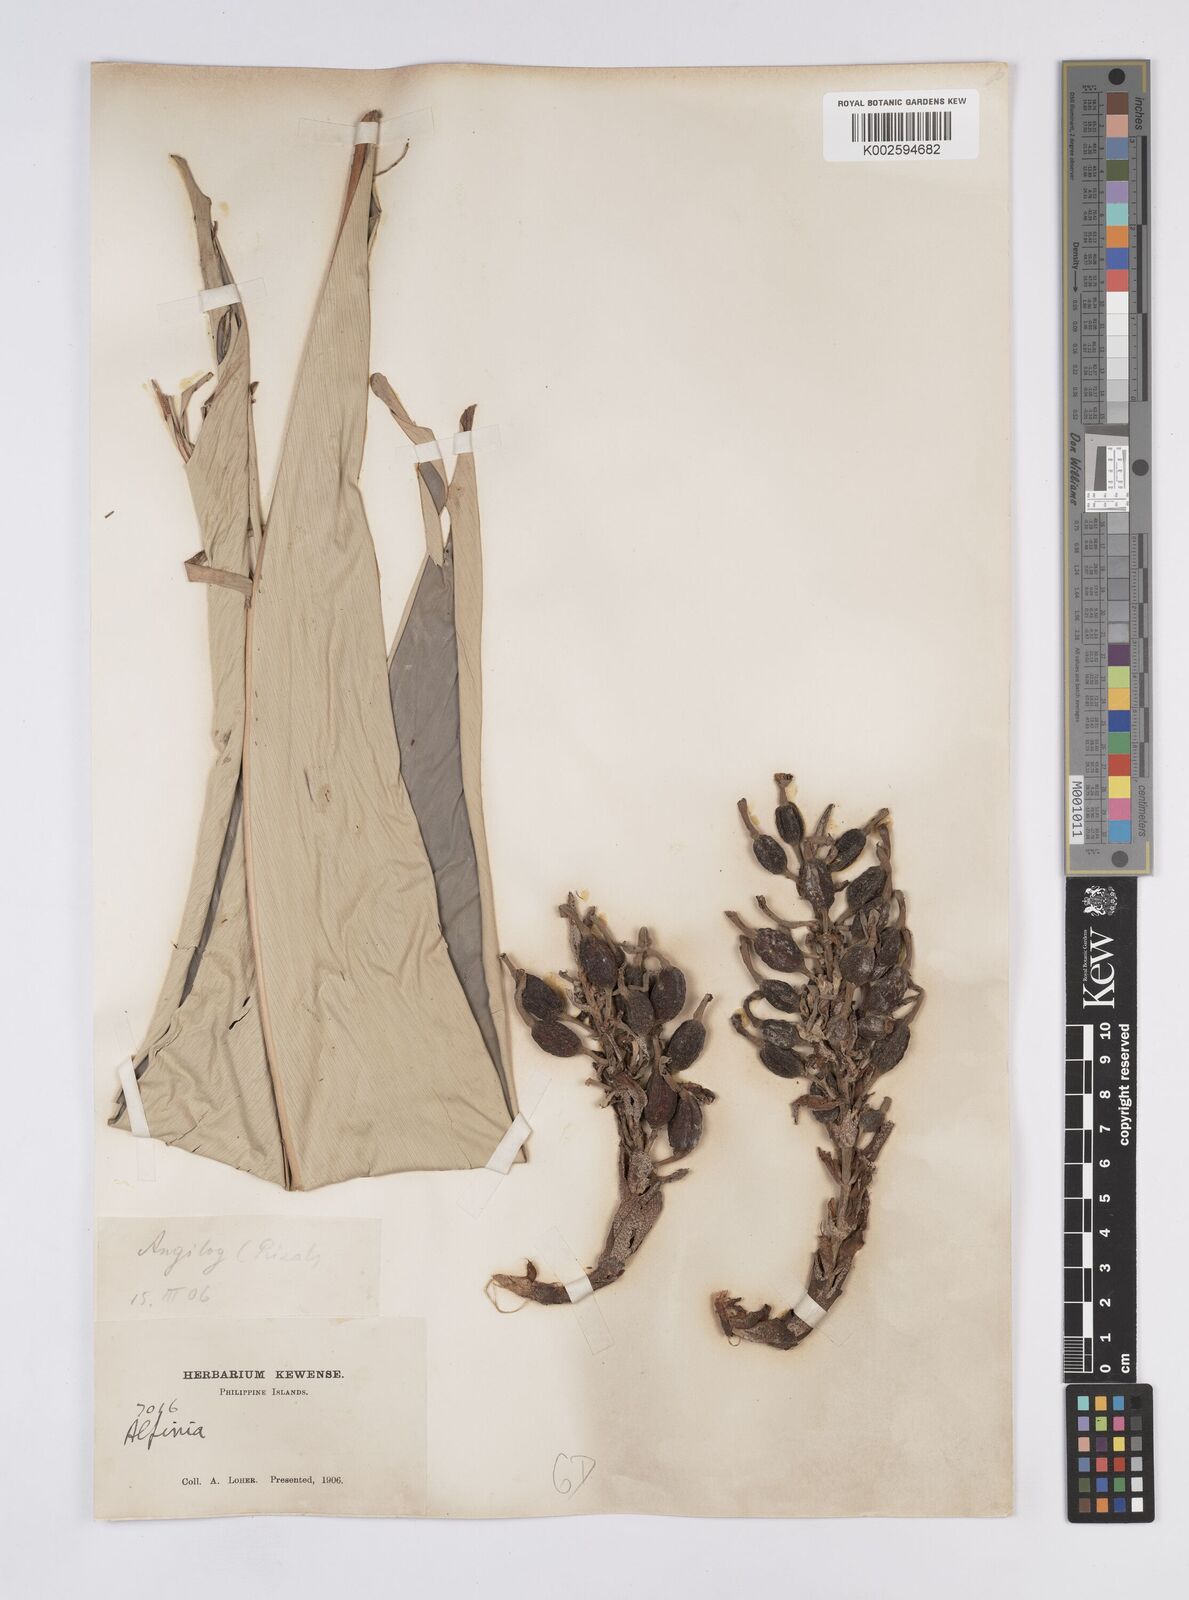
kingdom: Plantae
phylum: Tracheophyta
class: Liliopsida
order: Zingiberales
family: Zingiberaceae
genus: Geocharis
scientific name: Geocharis
